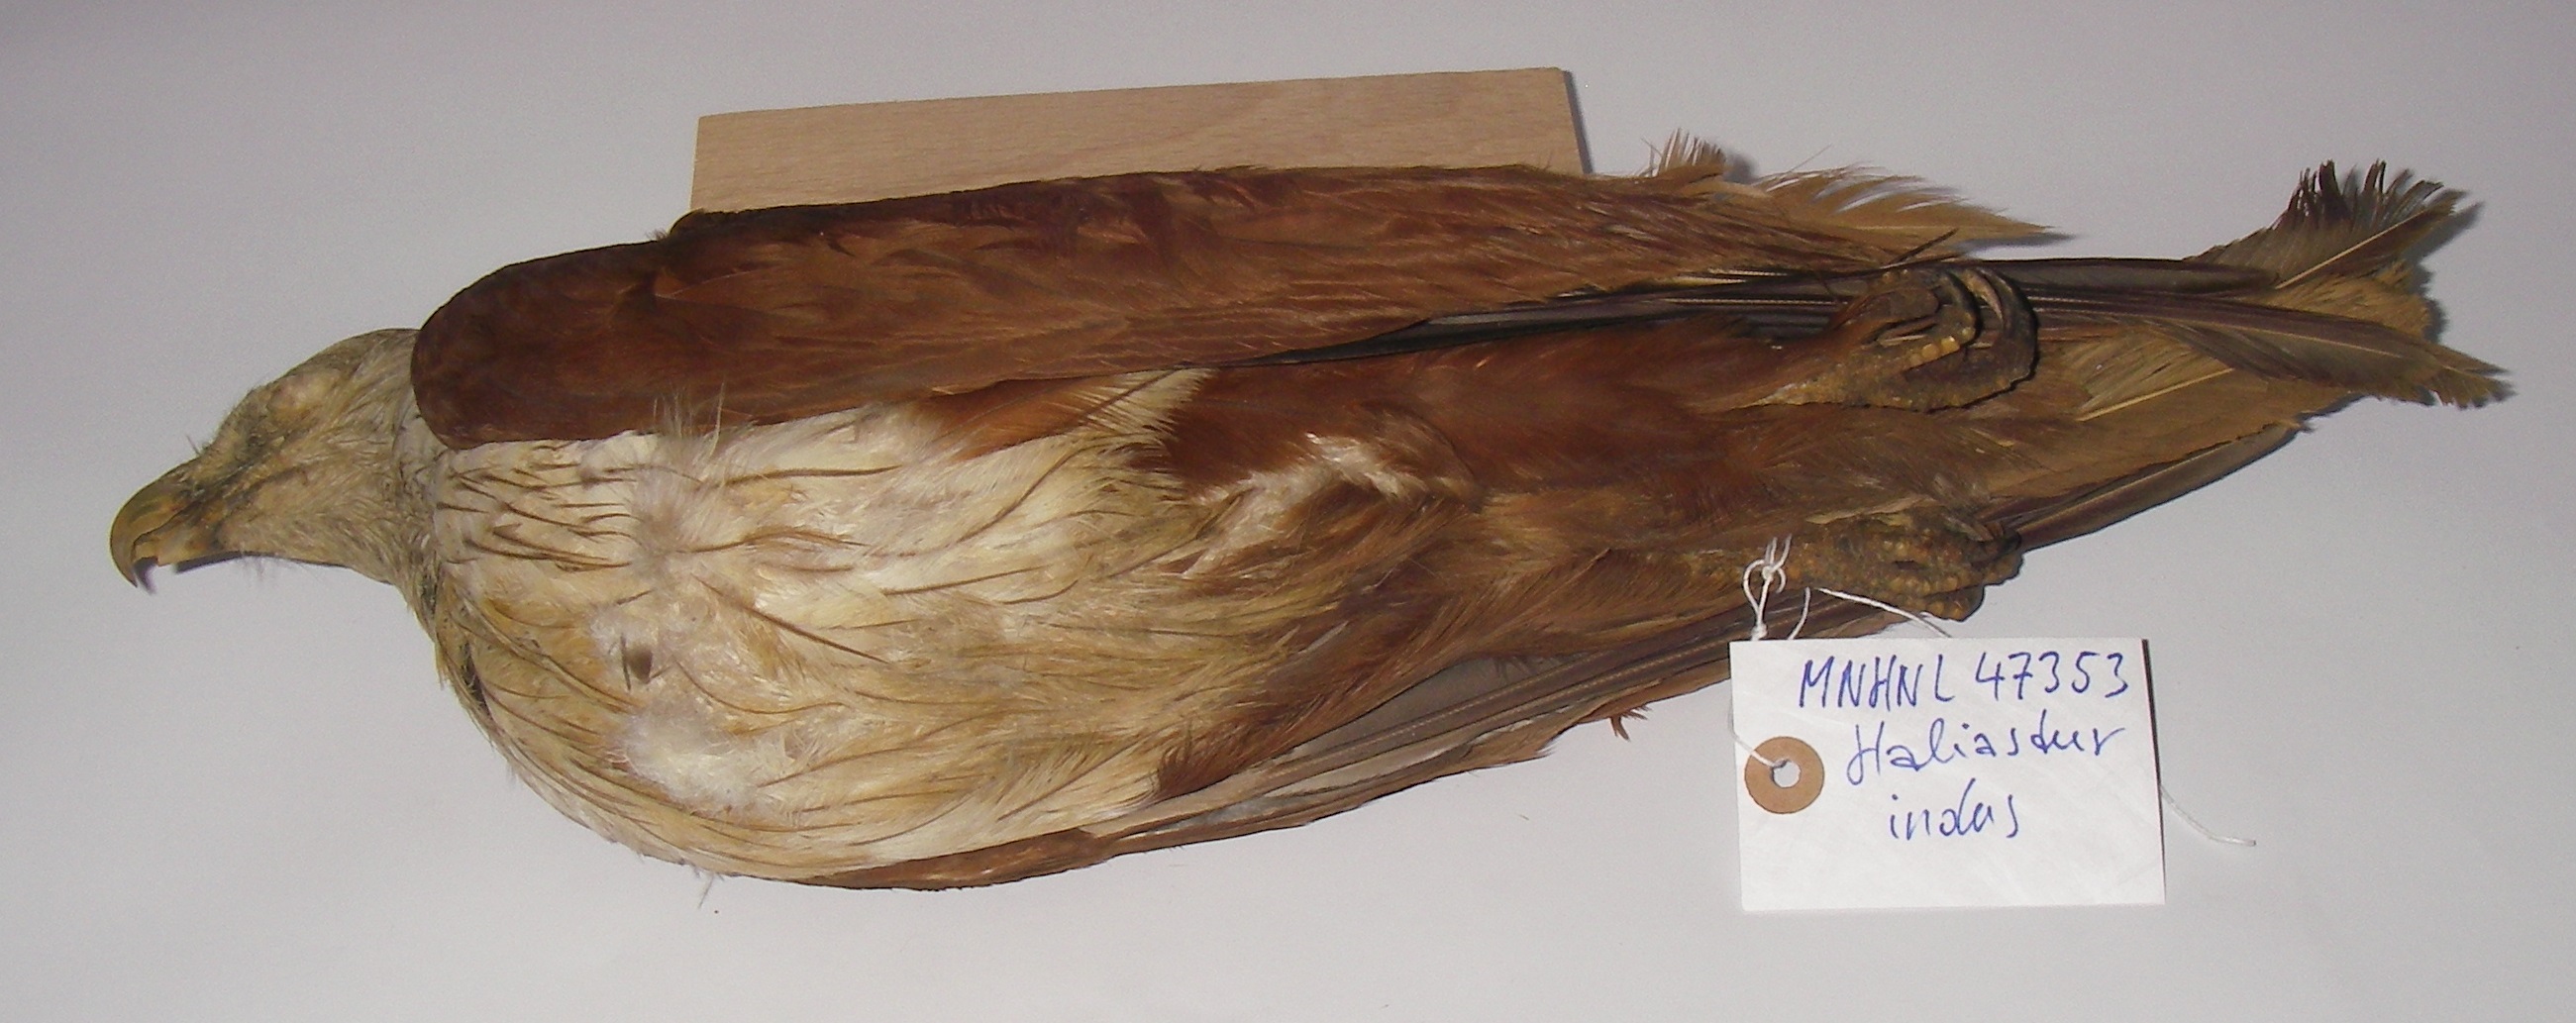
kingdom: Animalia
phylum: Chordata
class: Aves
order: Accipitriformes
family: Accipitridae
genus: Haliastur
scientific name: Haliastur indus
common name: Brahminy kite
